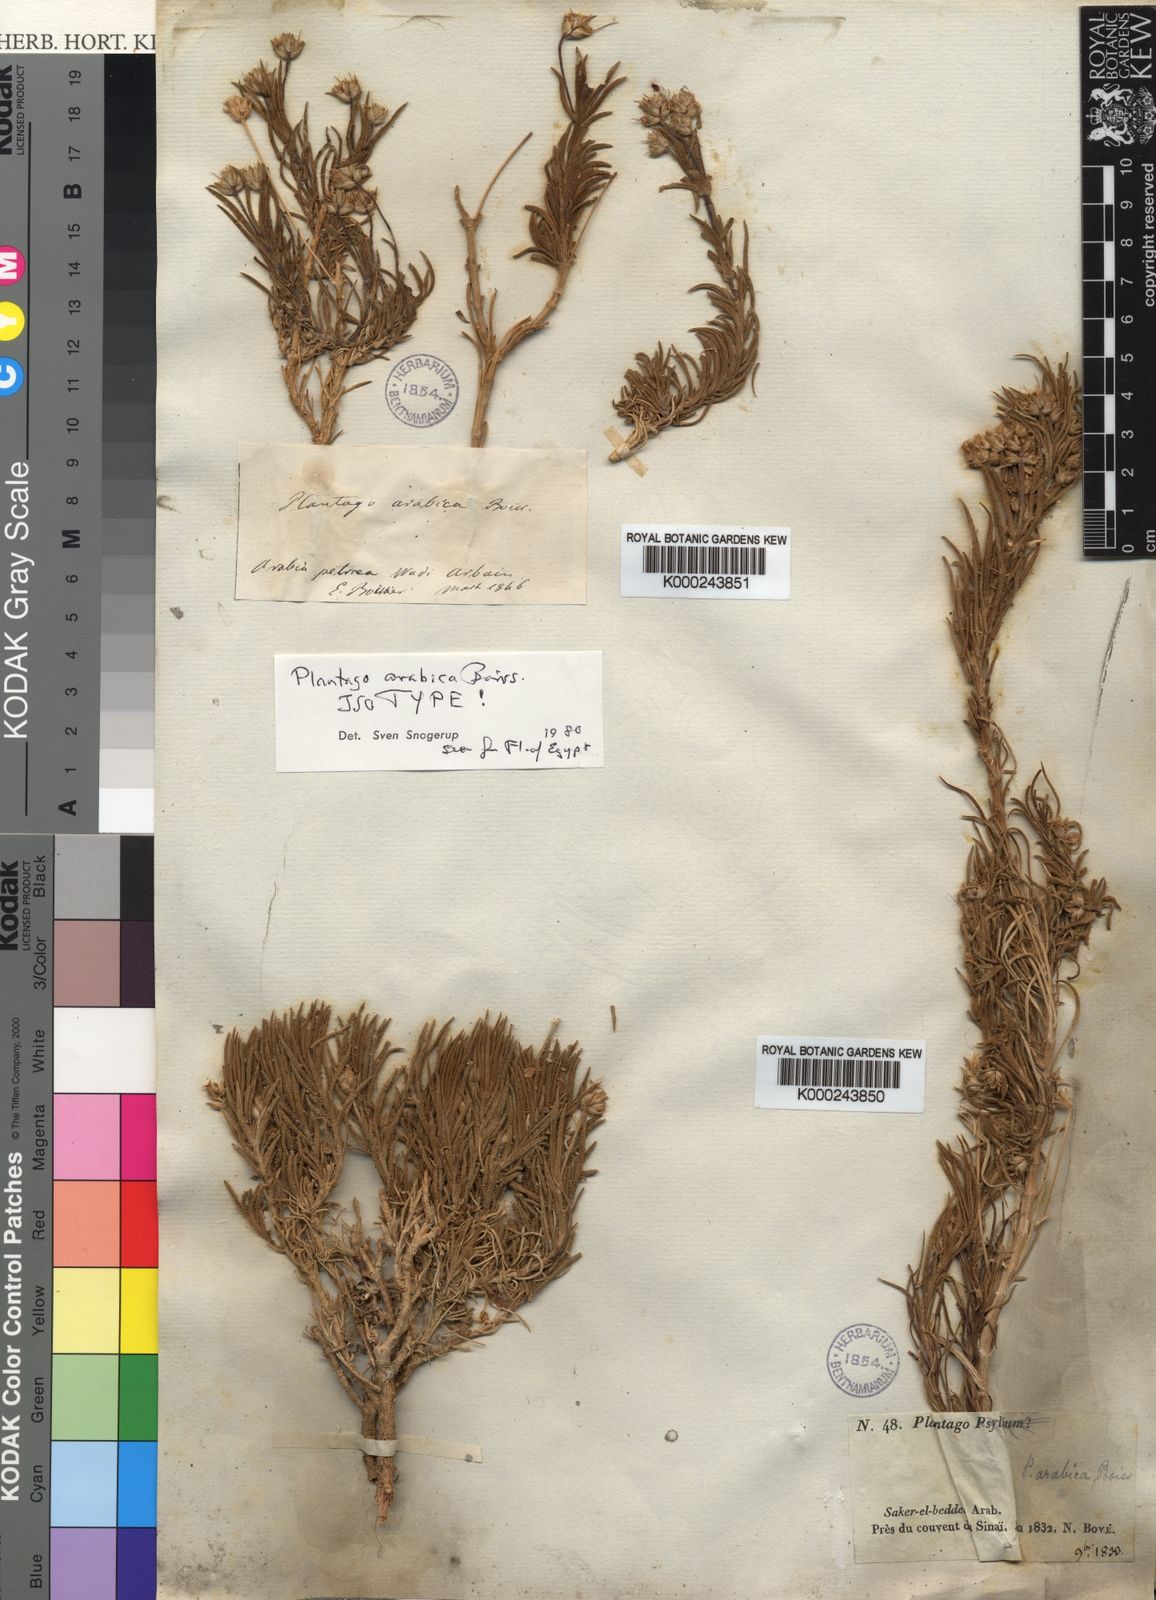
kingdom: Plantae
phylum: Tracheophyta
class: Magnoliopsida
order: Lamiales
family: Plantaginaceae
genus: Plantago
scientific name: Plantago sinaica
